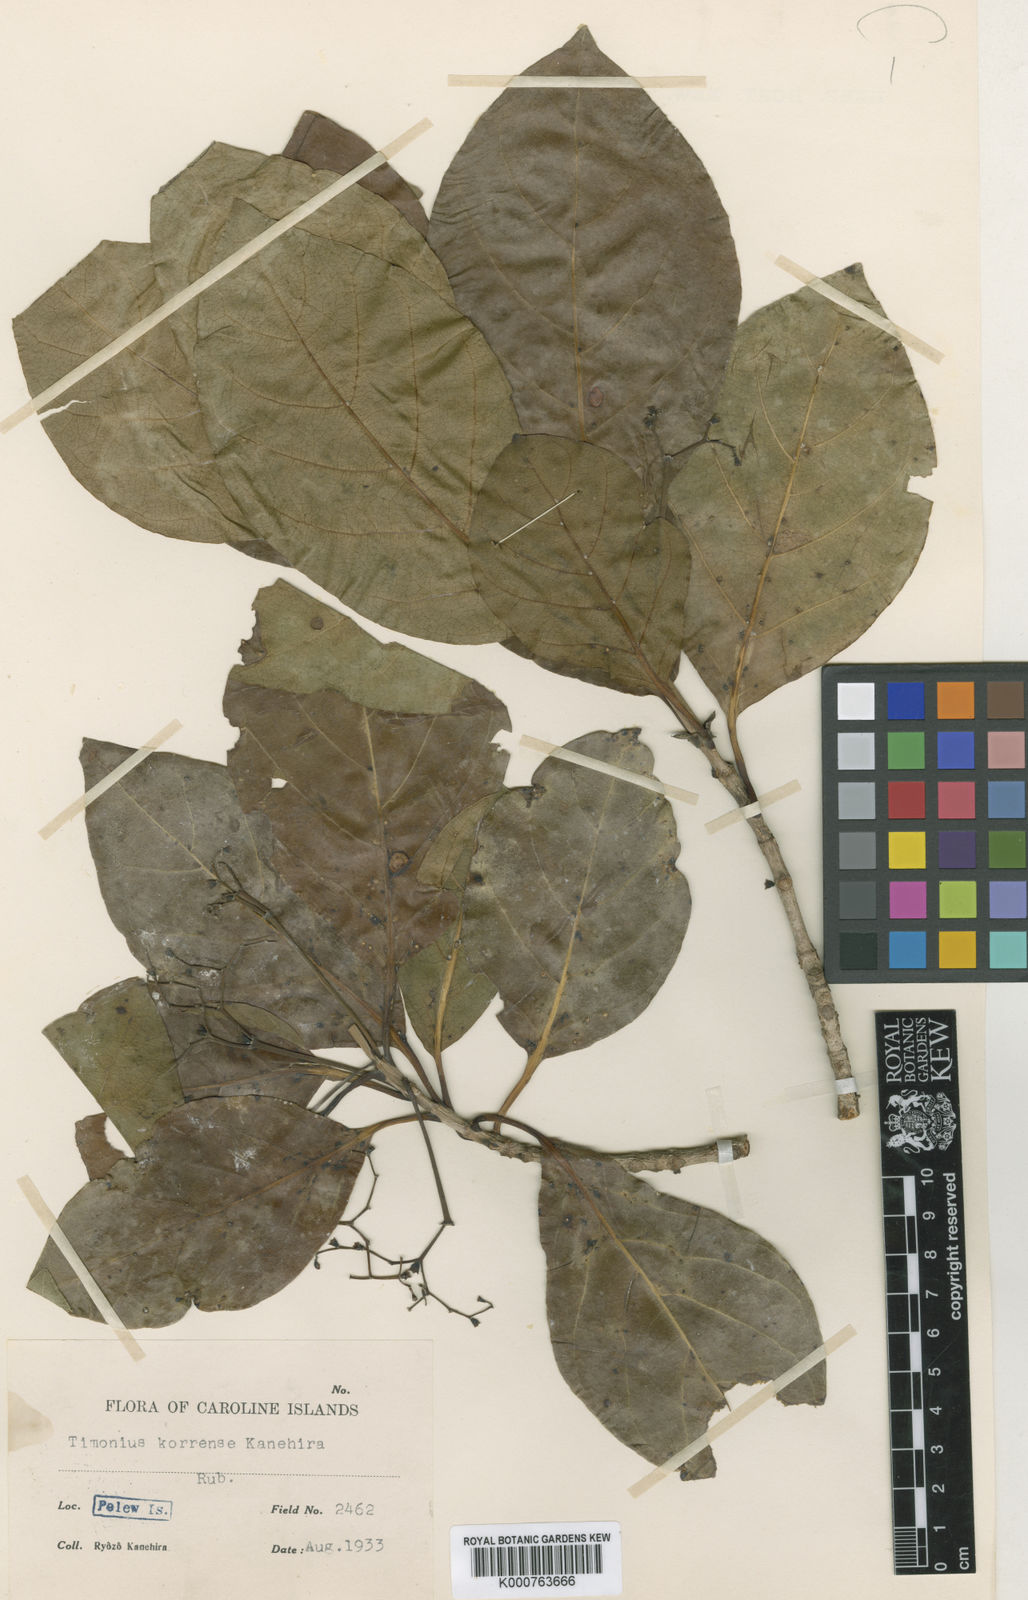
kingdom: Plantae
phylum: Tracheophyta
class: Magnoliopsida
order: Gentianales
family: Rubiaceae
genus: Timonius
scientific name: Timonius korrensis
